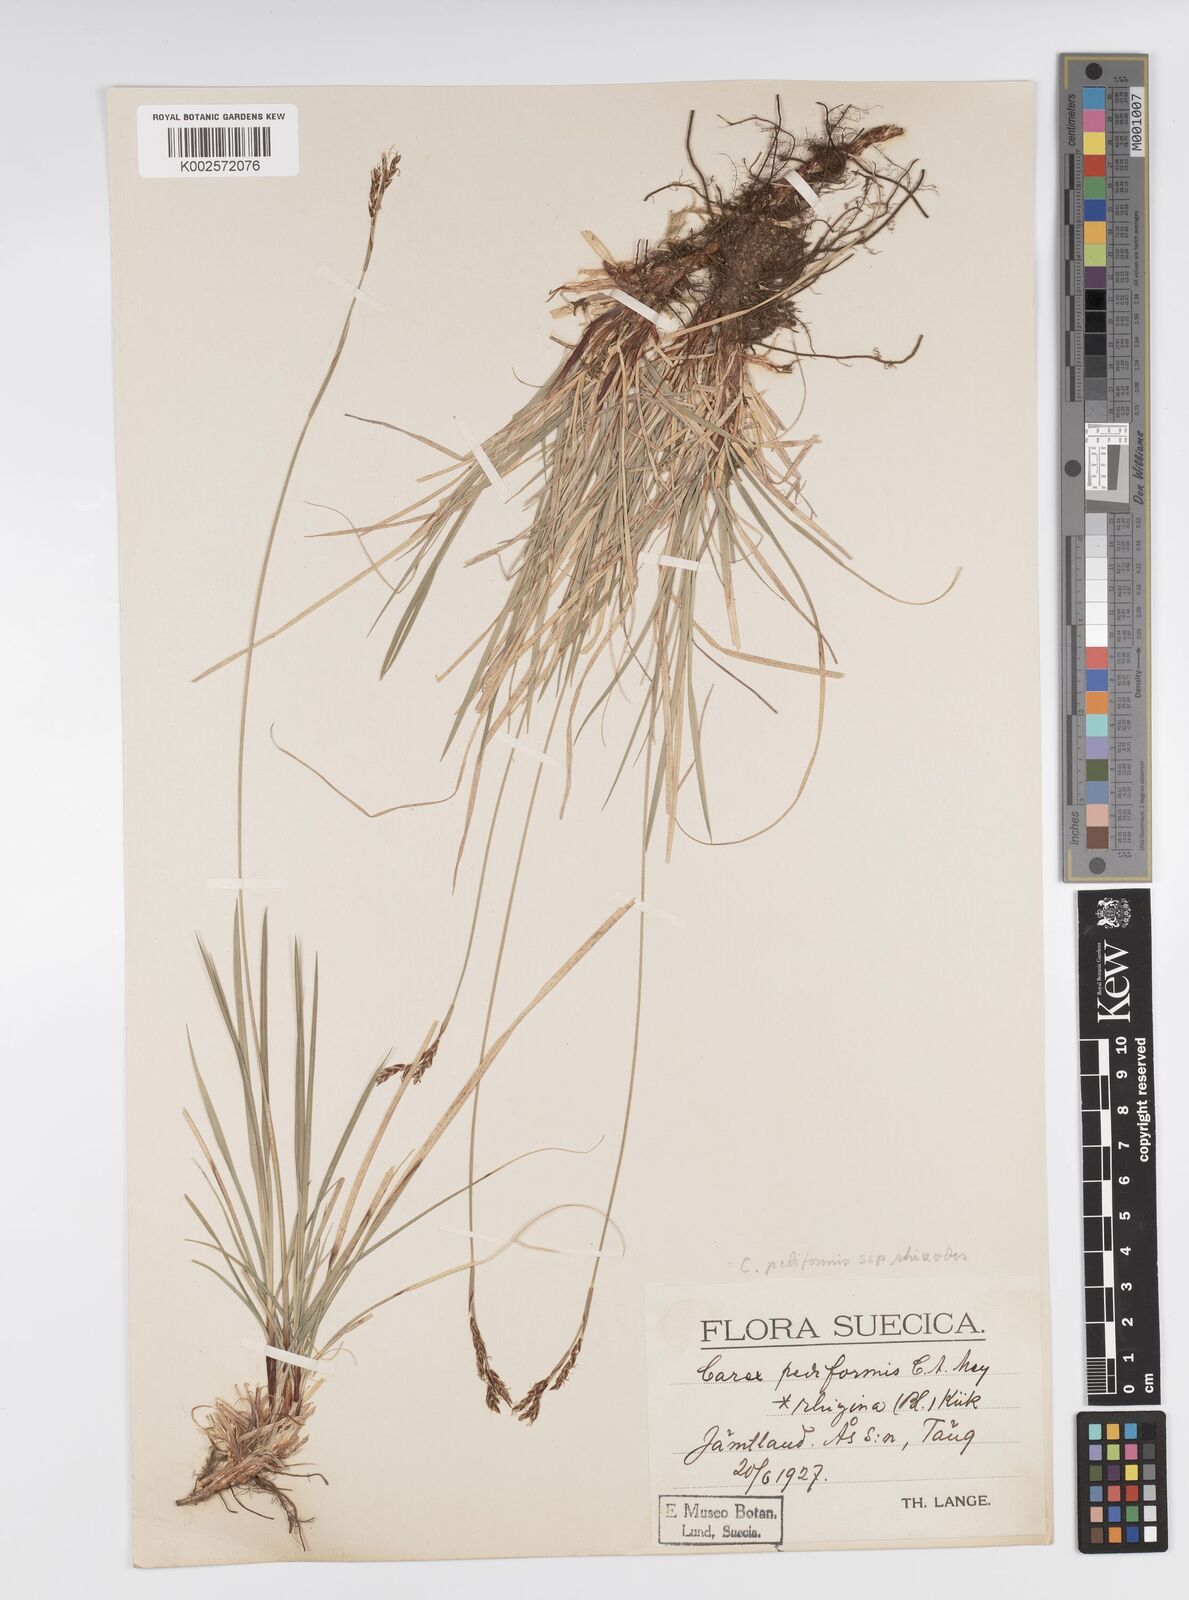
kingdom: Plantae
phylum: Tracheophyta
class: Liliopsida
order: Poales
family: Cyperaceae
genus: Carex
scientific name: Carex pediformis
